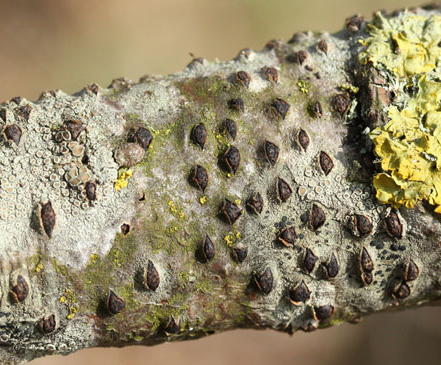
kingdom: Fungi
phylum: Ascomycota
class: Sordariomycetes
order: Xylariales
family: Diatrypaceae
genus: Diatrypella
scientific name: Diatrypella quercina
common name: ege-kulskorpe
